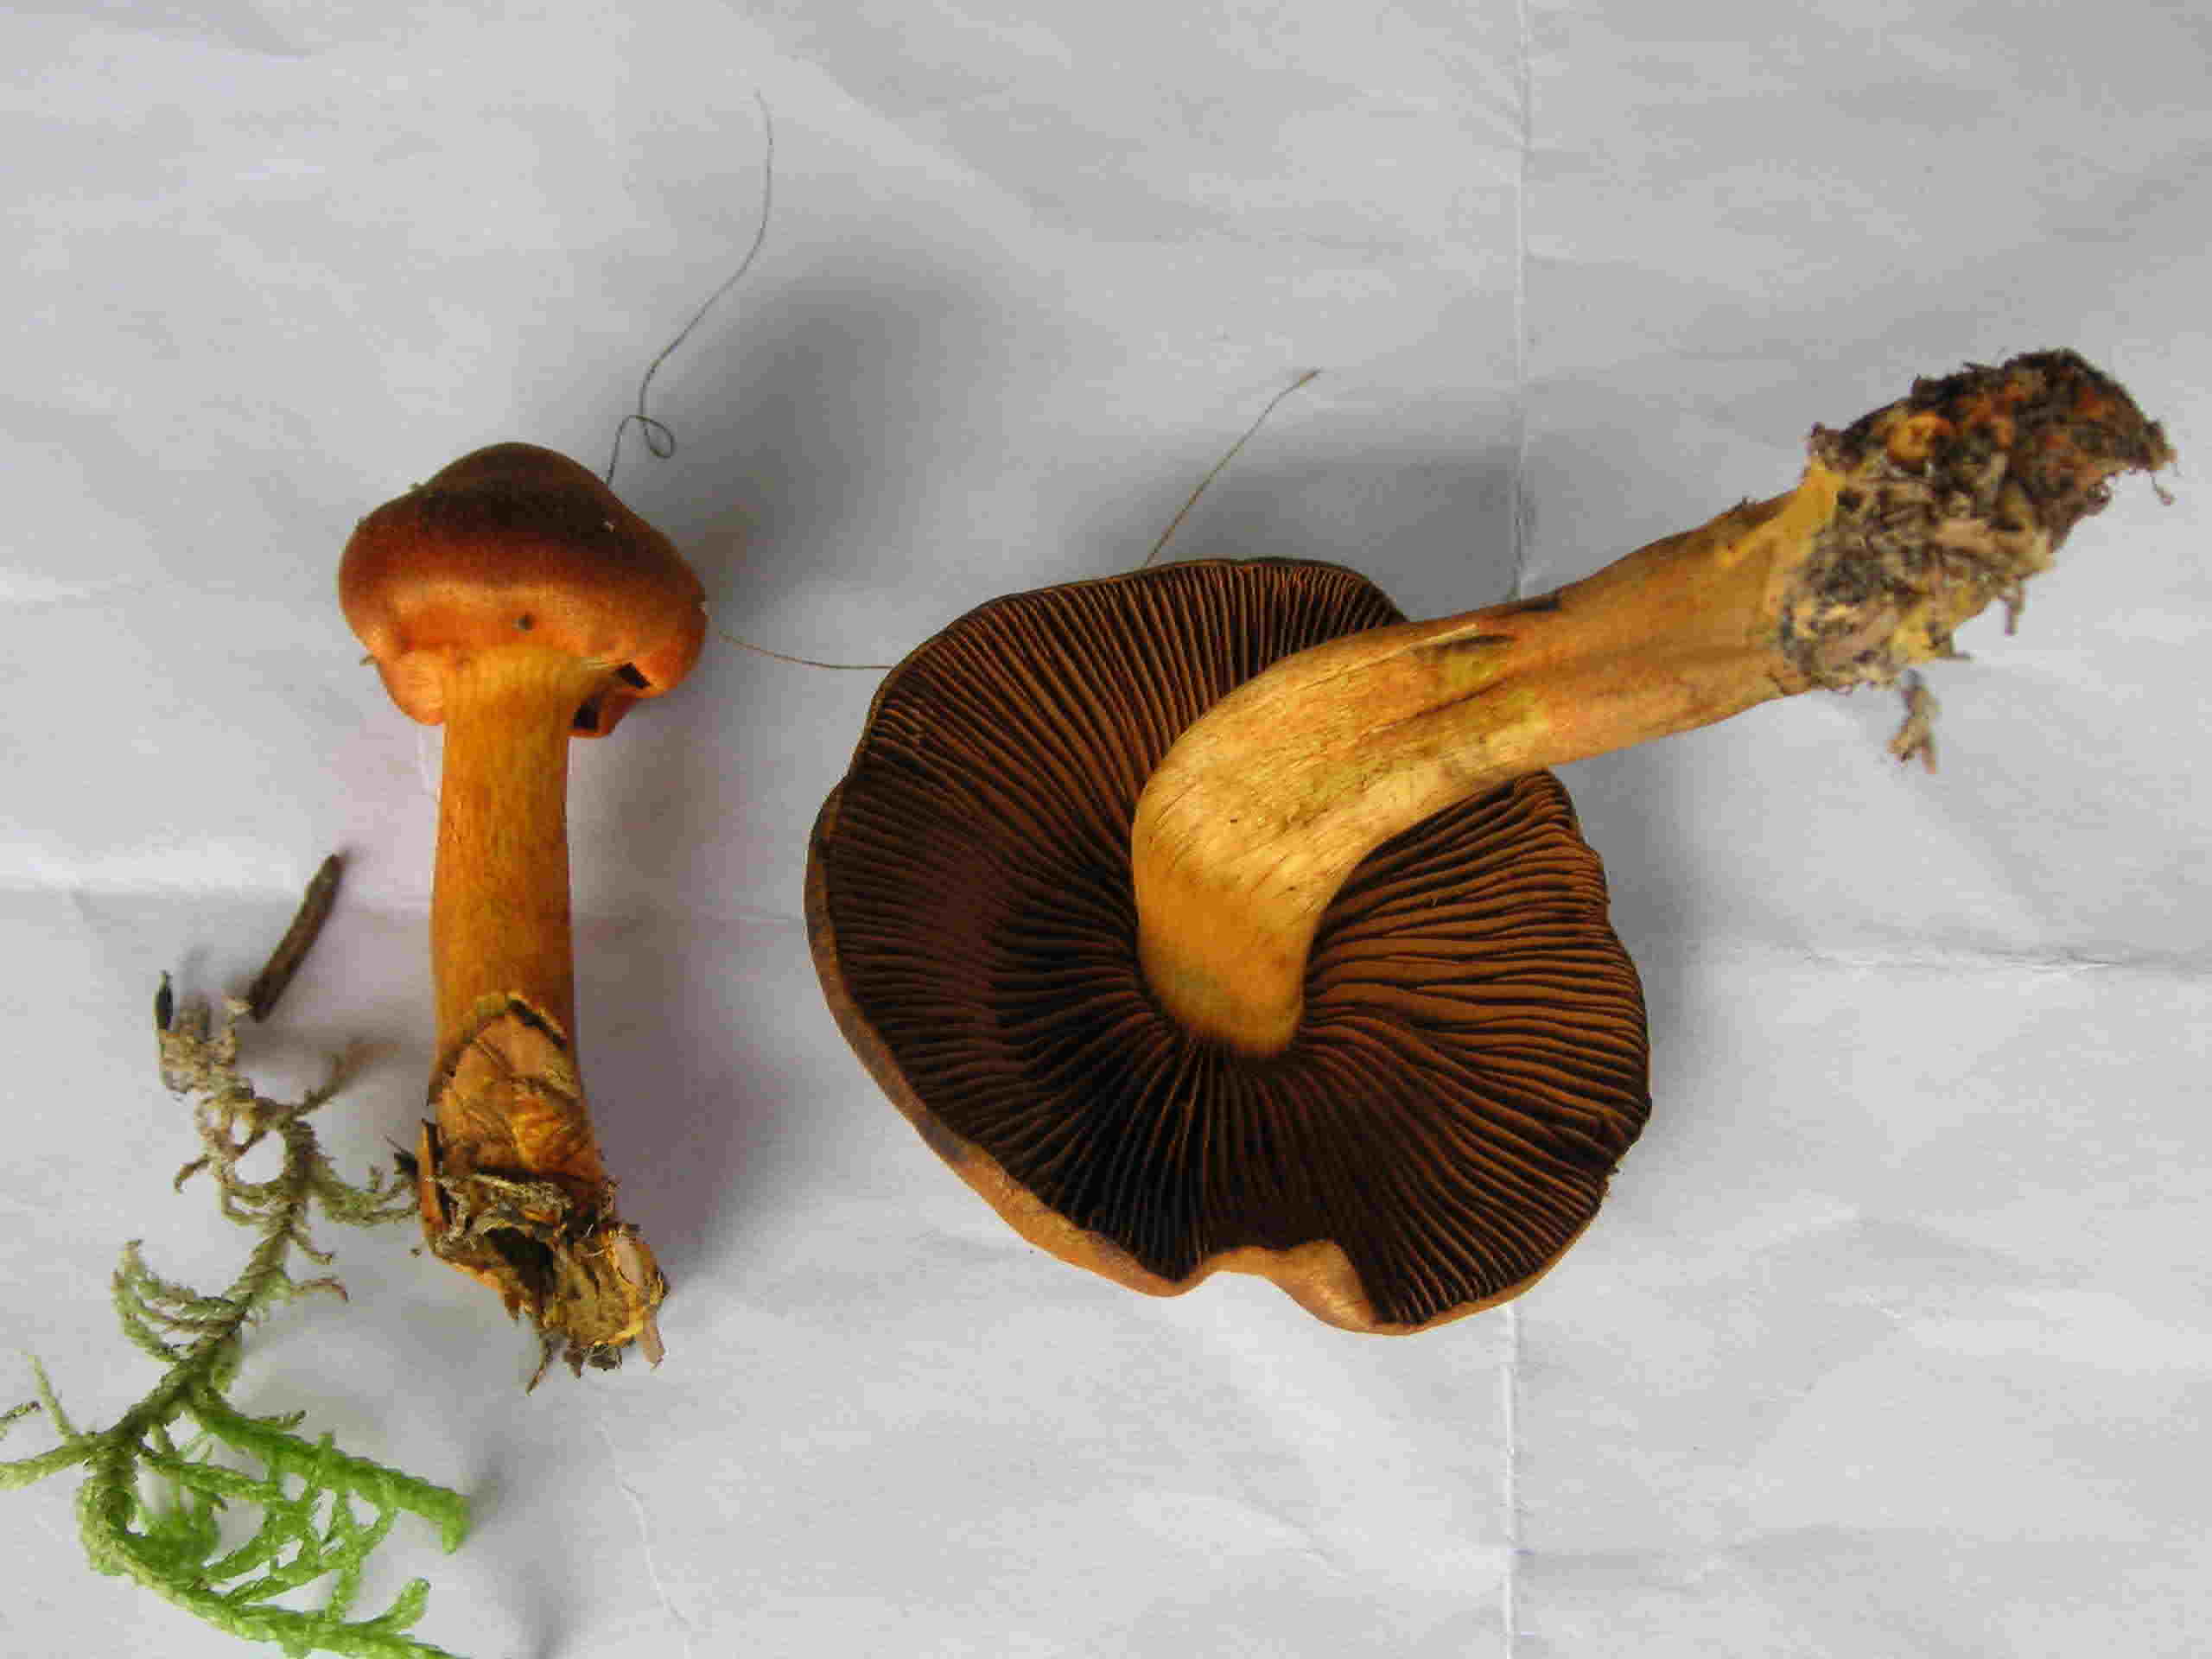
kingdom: Fungi
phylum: Basidiomycota
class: Agaricomycetes
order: Agaricales
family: Cortinariaceae
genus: Cortinarius
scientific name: Cortinarius malicorius
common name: grønkødet slørhat
